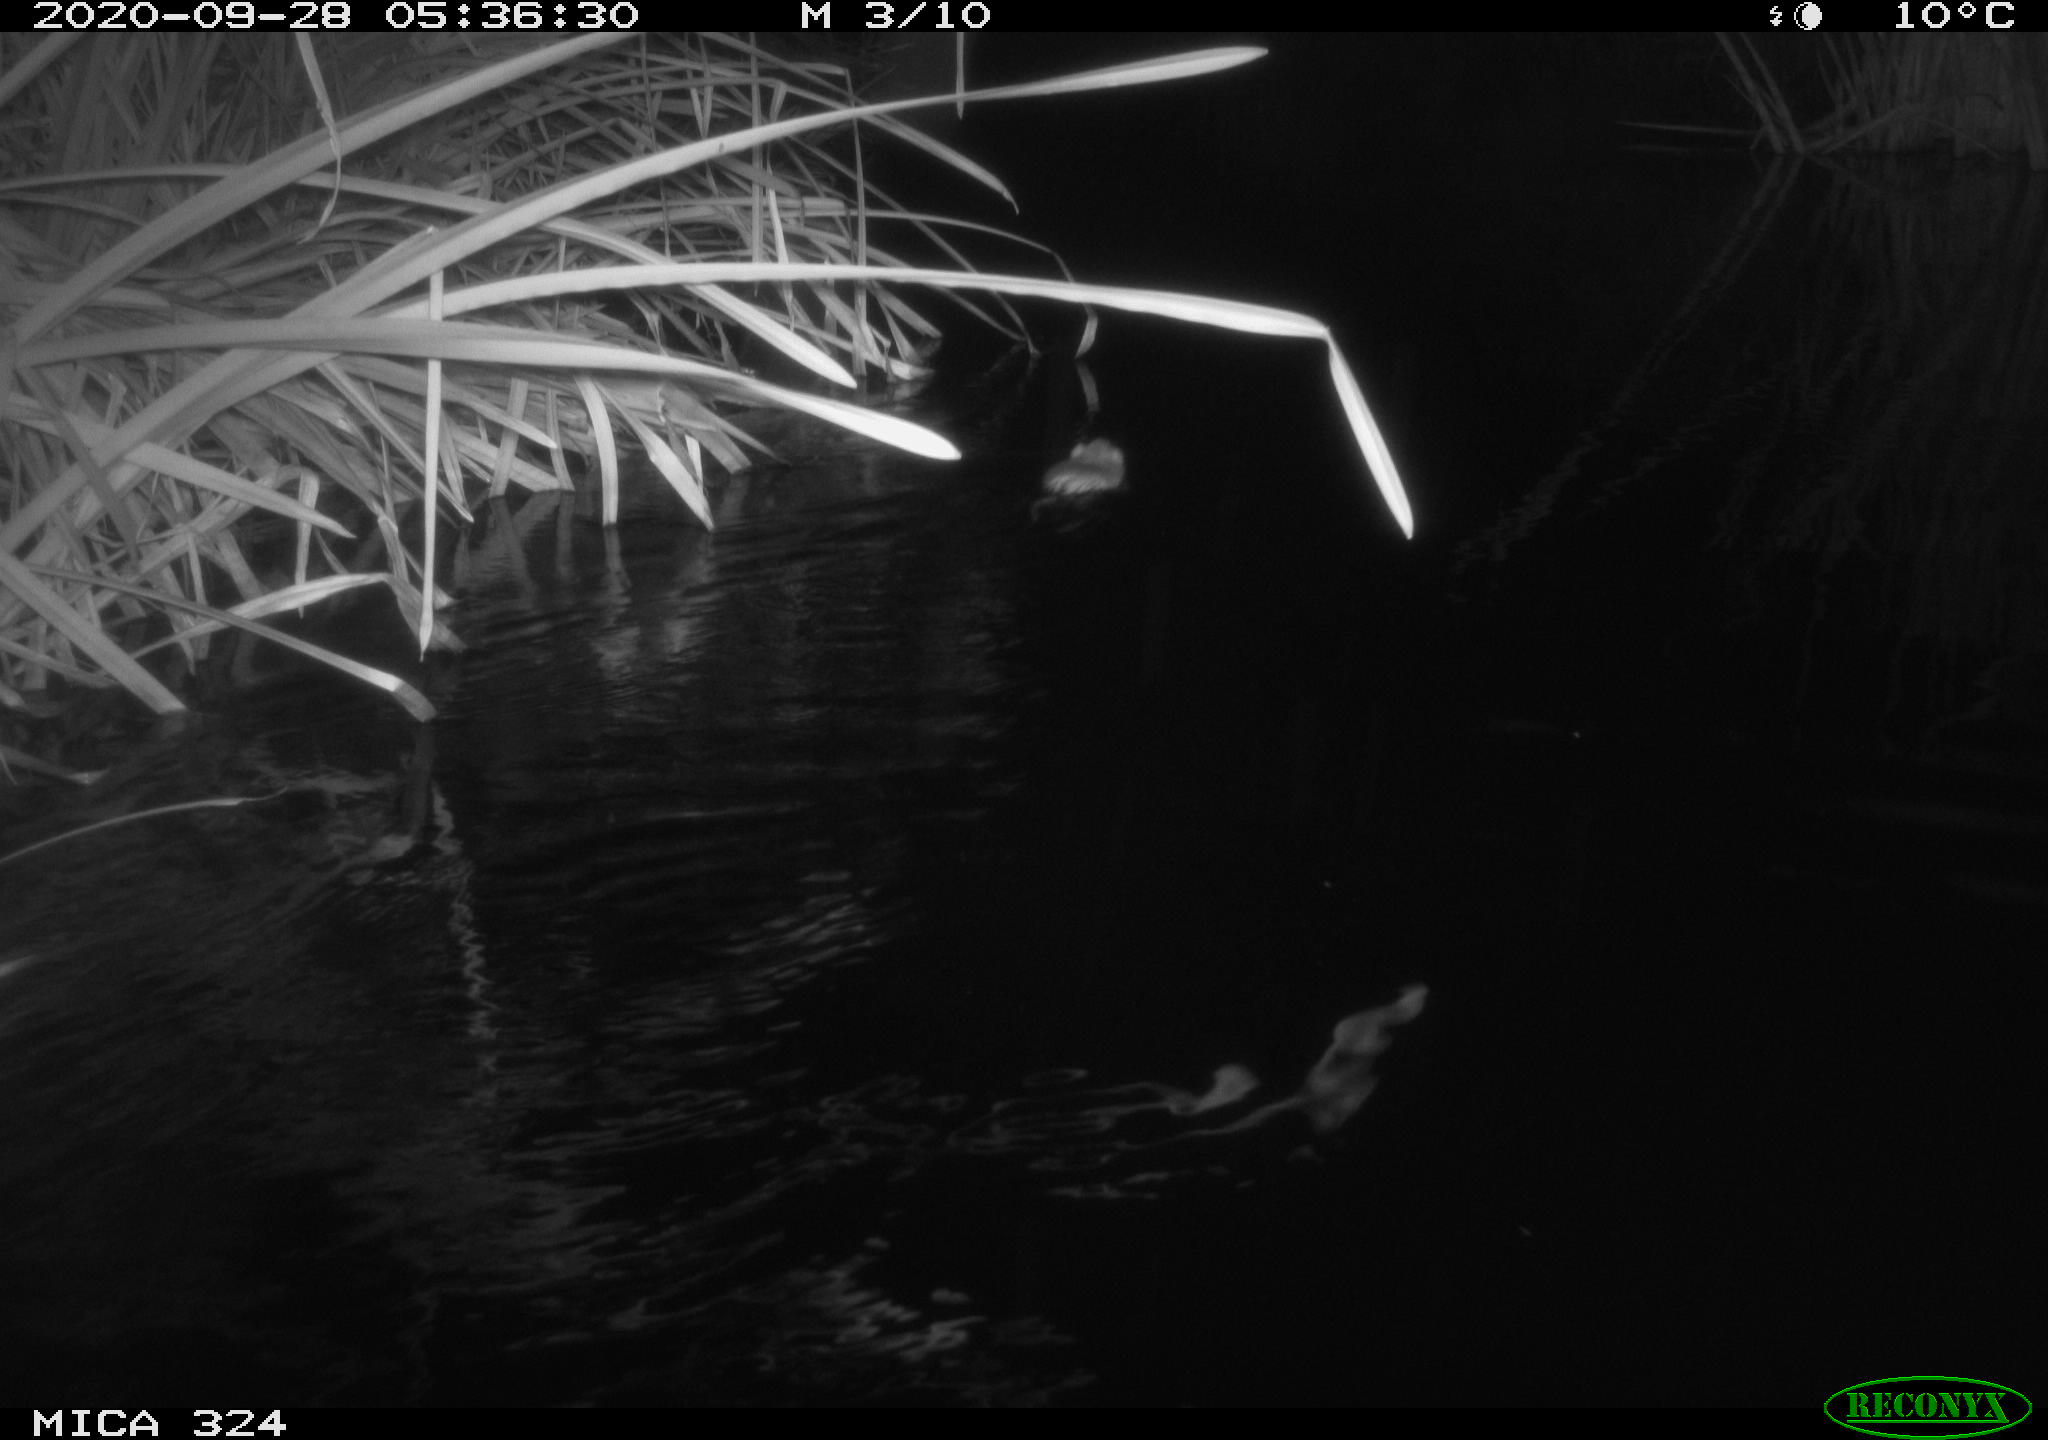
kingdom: Animalia
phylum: Chordata
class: Mammalia
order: Rodentia
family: Muridae
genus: Rattus
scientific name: Rattus norvegicus
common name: Brown rat
